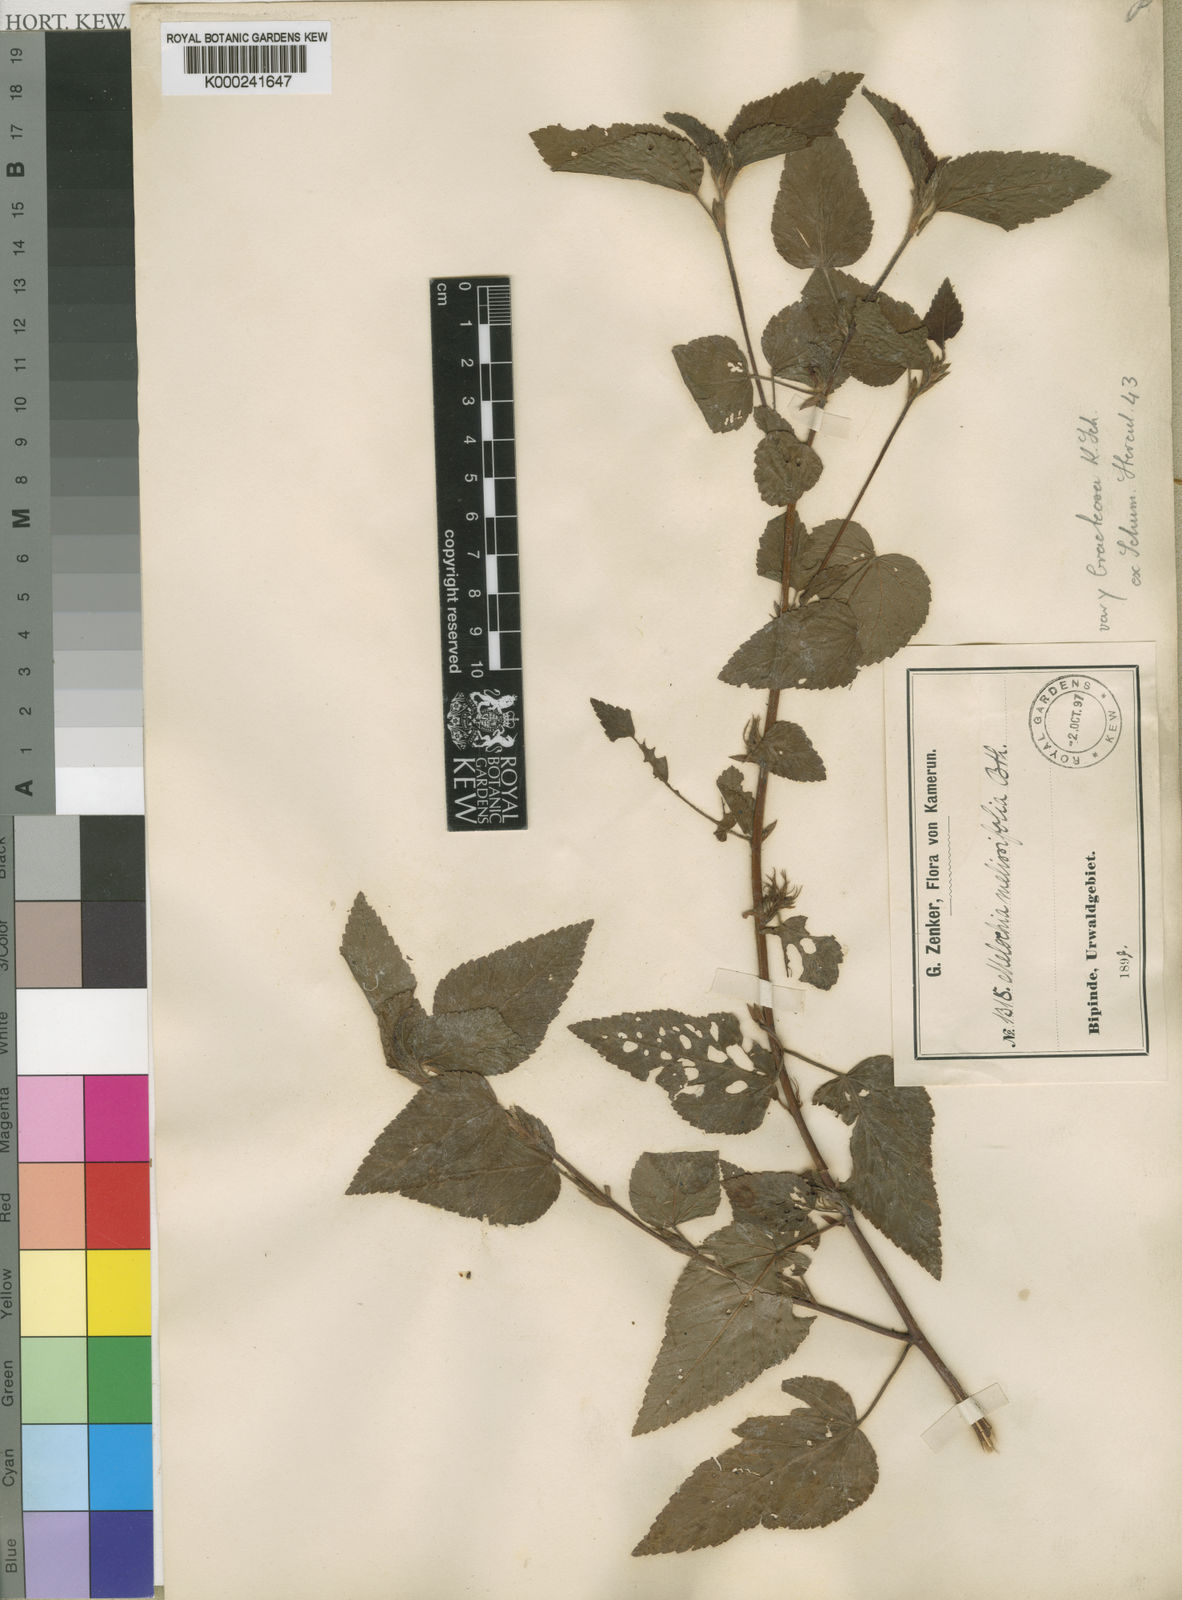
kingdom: Plantae
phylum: Tracheophyta
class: Magnoliopsida
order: Malvales
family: Malvaceae
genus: Melochia
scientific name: Melochia melissifolia
